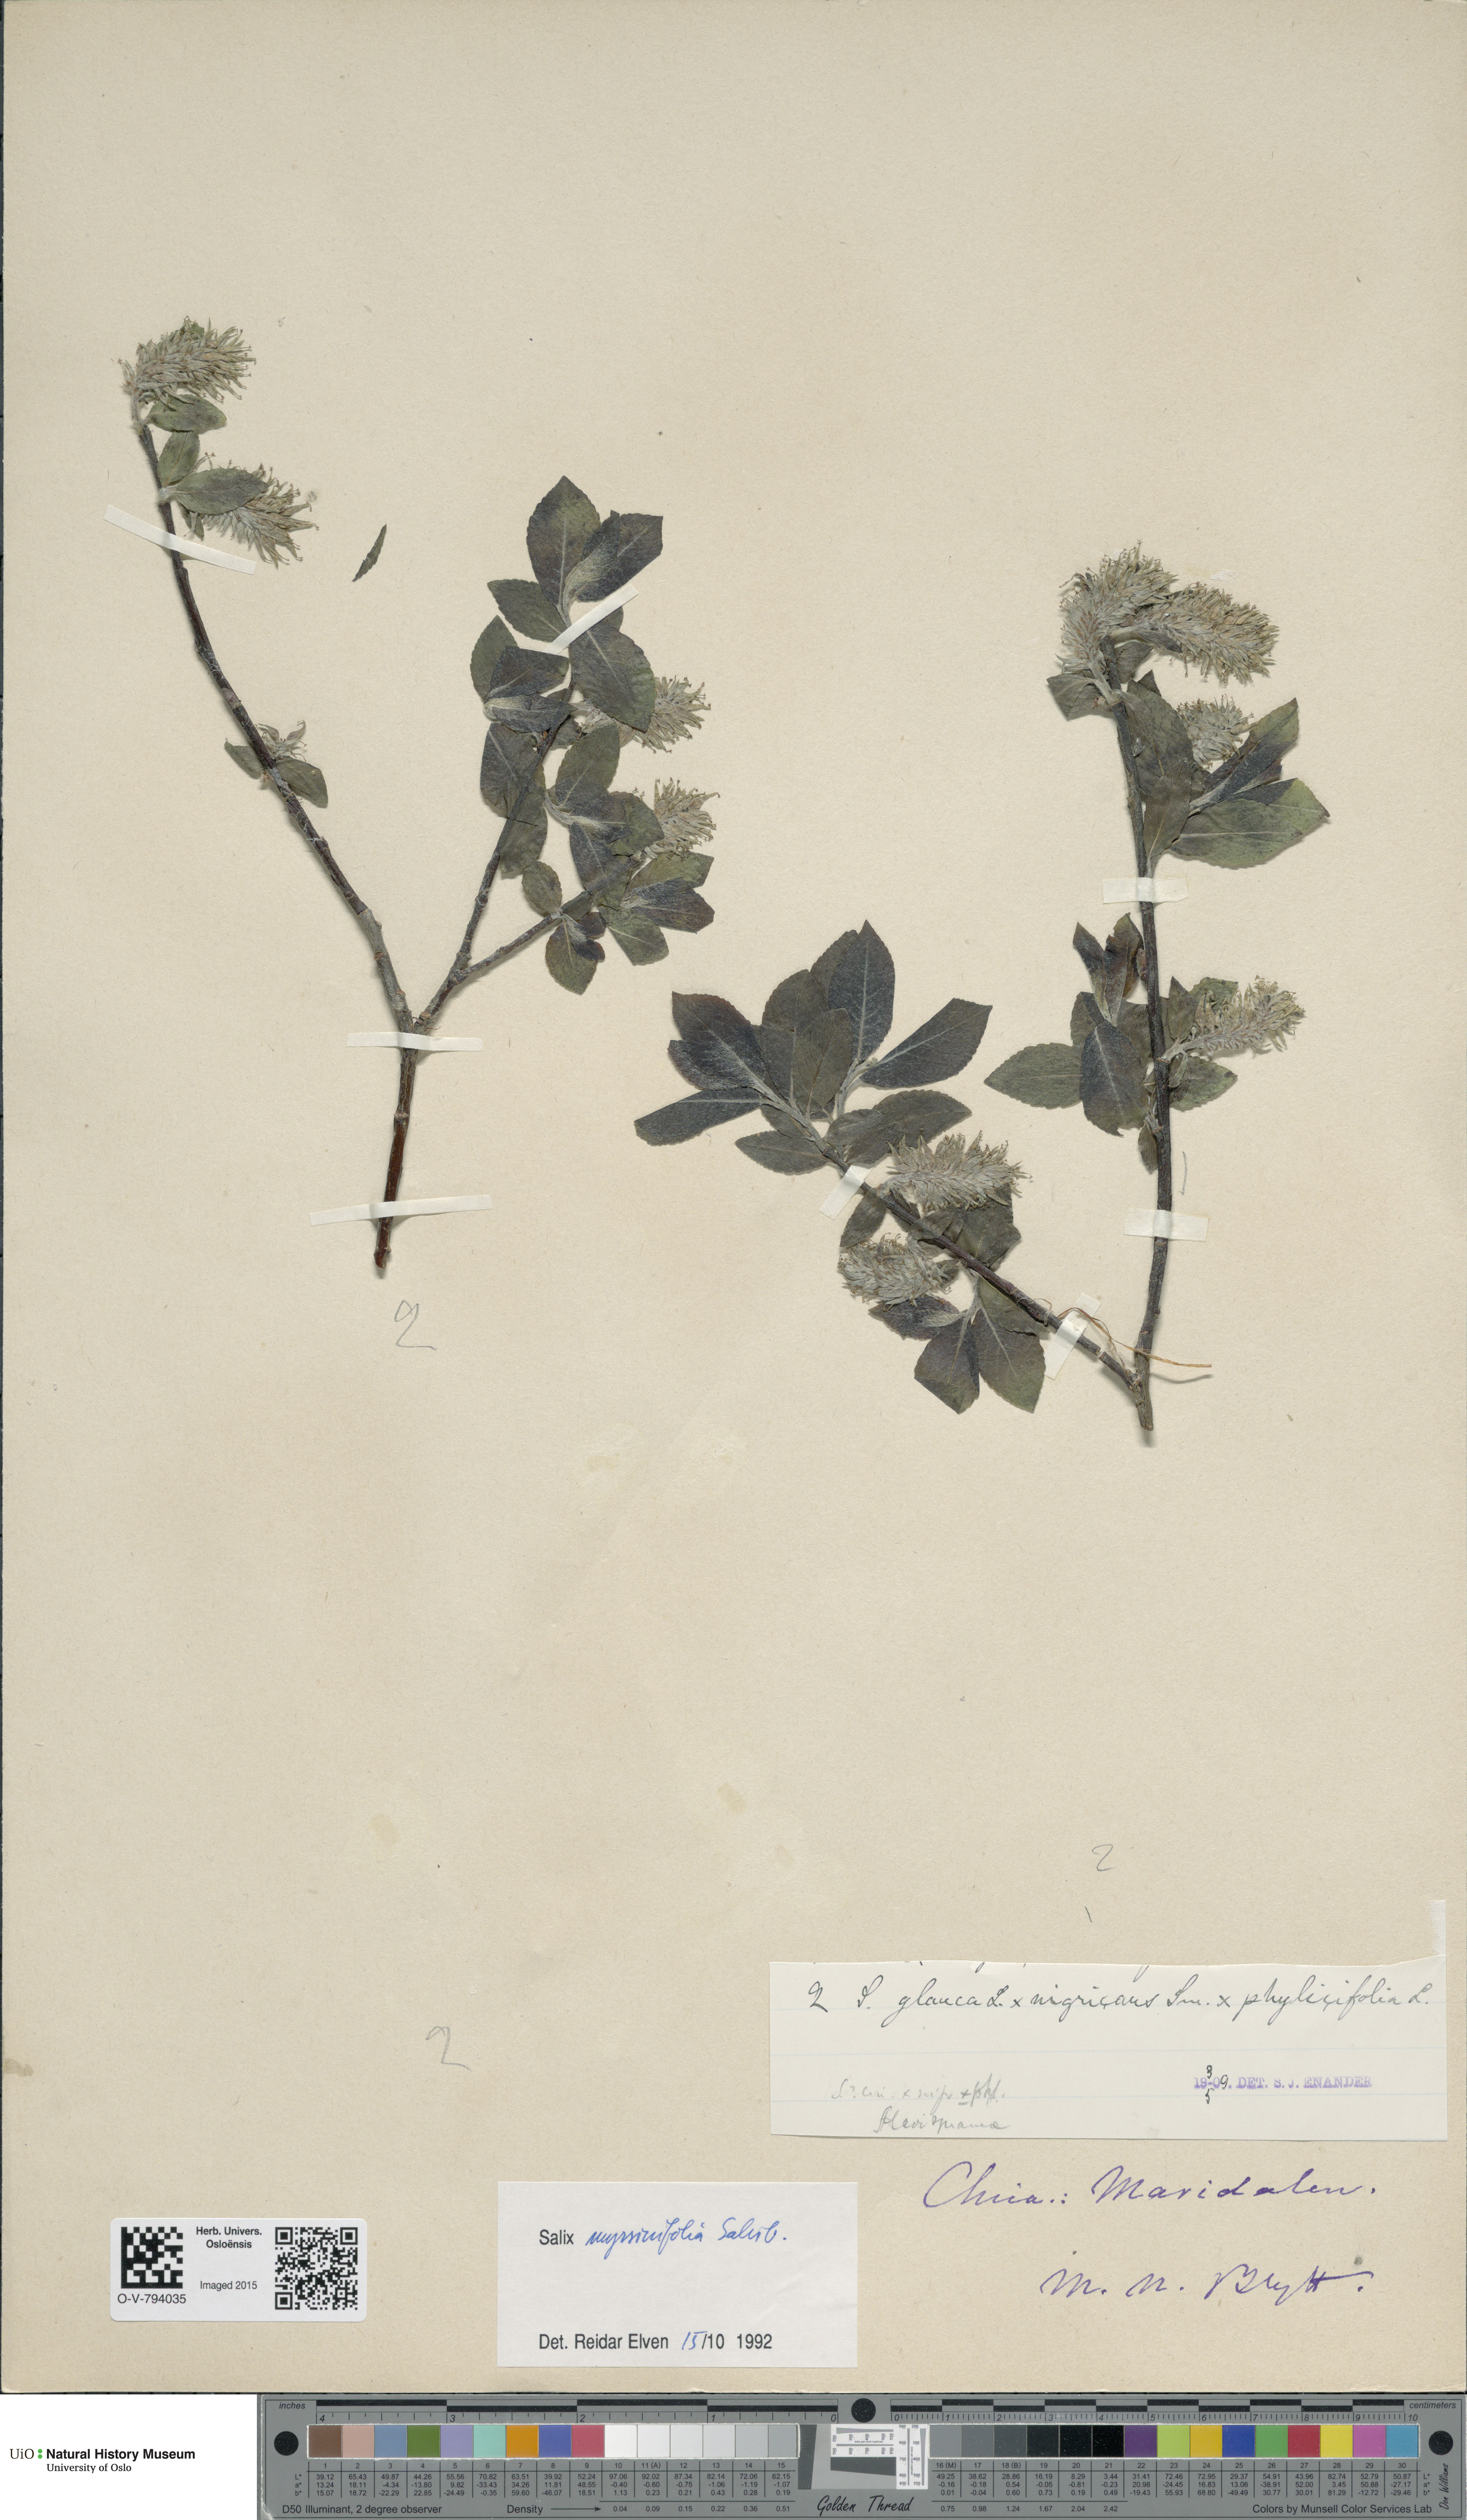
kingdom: Plantae
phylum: Tracheophyta
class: Magnoliopsida
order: Malpighiales
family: Salicaceae
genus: Salix
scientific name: Salix myrsinifolia
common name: Dark-leaved willow
